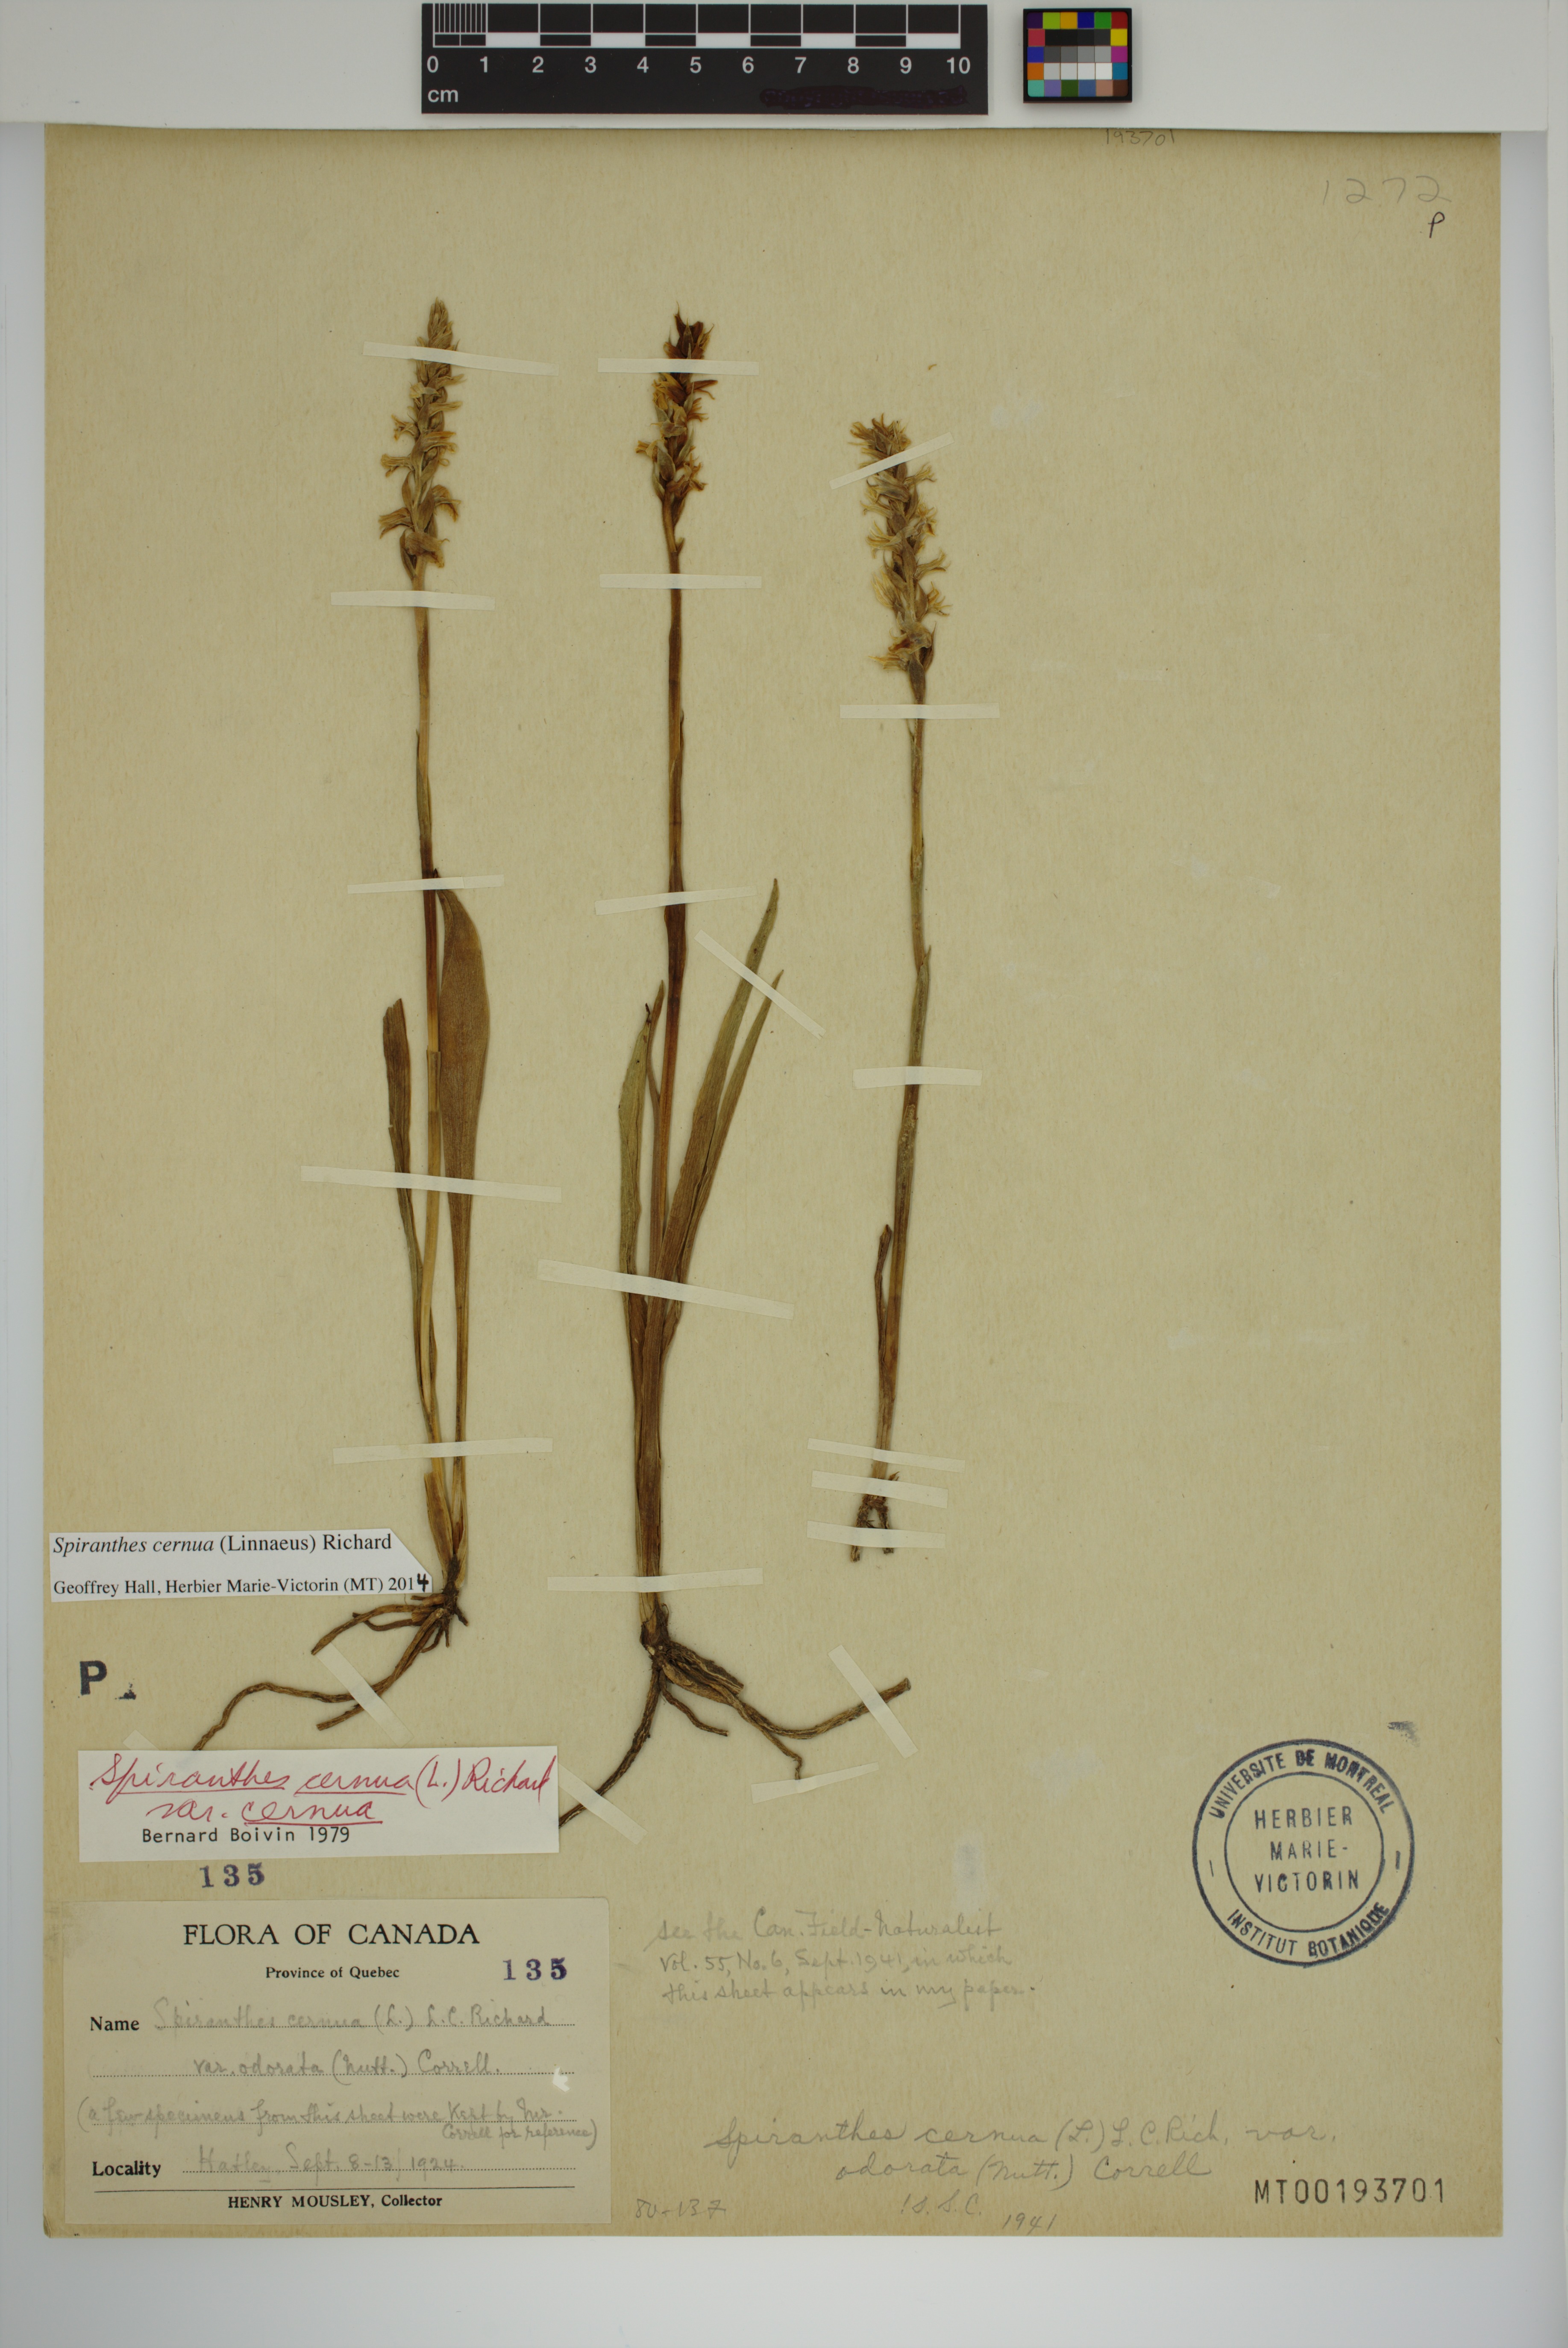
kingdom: Plantae
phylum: Tracheophyta
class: Liliopsida
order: Asparagales
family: Orchidaceae
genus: Spiranthes
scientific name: Spiranthes cernua
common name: Dropping ladies'-tresses
